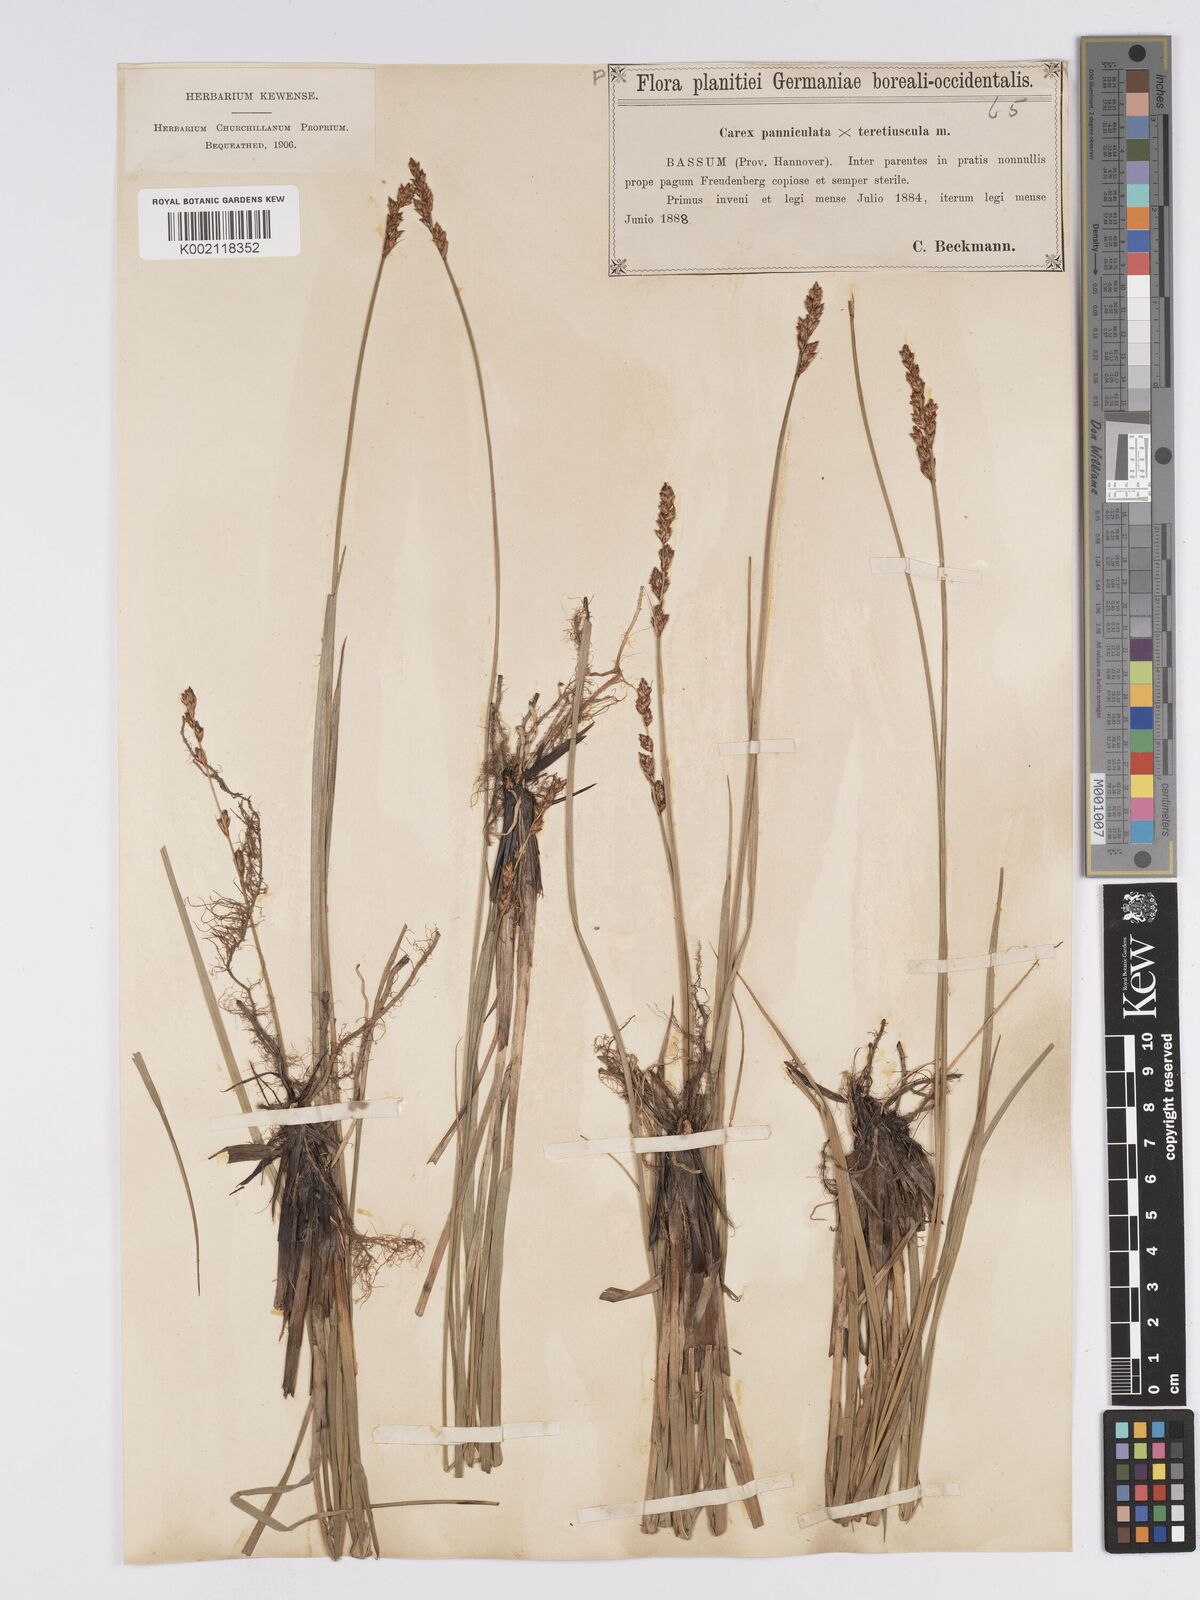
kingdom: Plantae
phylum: Tracheophyta
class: Liliopsida
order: Poales
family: Cyperaceae
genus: Carex
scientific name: Carex paniculata
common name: Greater tussock-sedge
